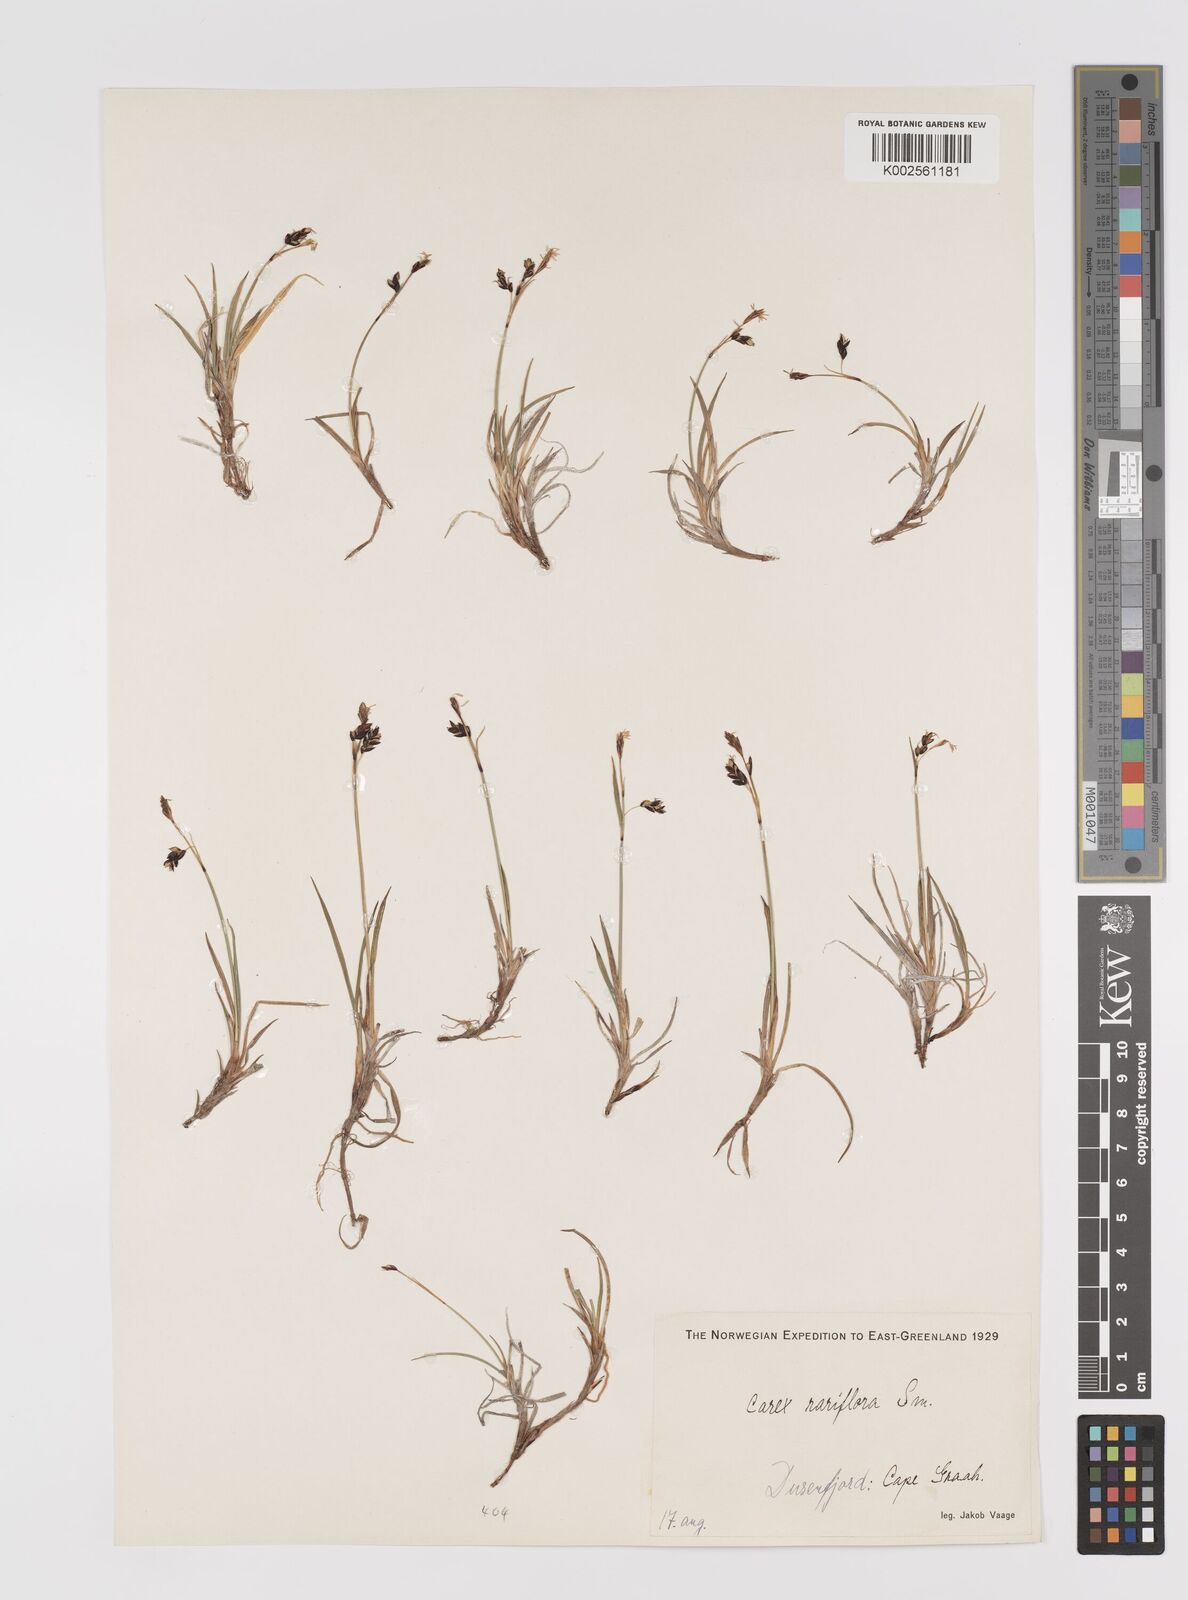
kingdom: Plantae
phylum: Tracheophyta
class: Liliopsida
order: Poales
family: Cyperaceae
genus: Carex
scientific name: Carex rariflora
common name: Loose-flowered alpine sedge
